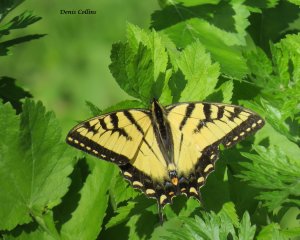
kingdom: Animalia
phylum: Arthropoda
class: Insecta
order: Lepidoptera
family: Papilionidae
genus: Pterourus
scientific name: Pterourus canadensis
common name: Canadian Tiger Swallowtail
